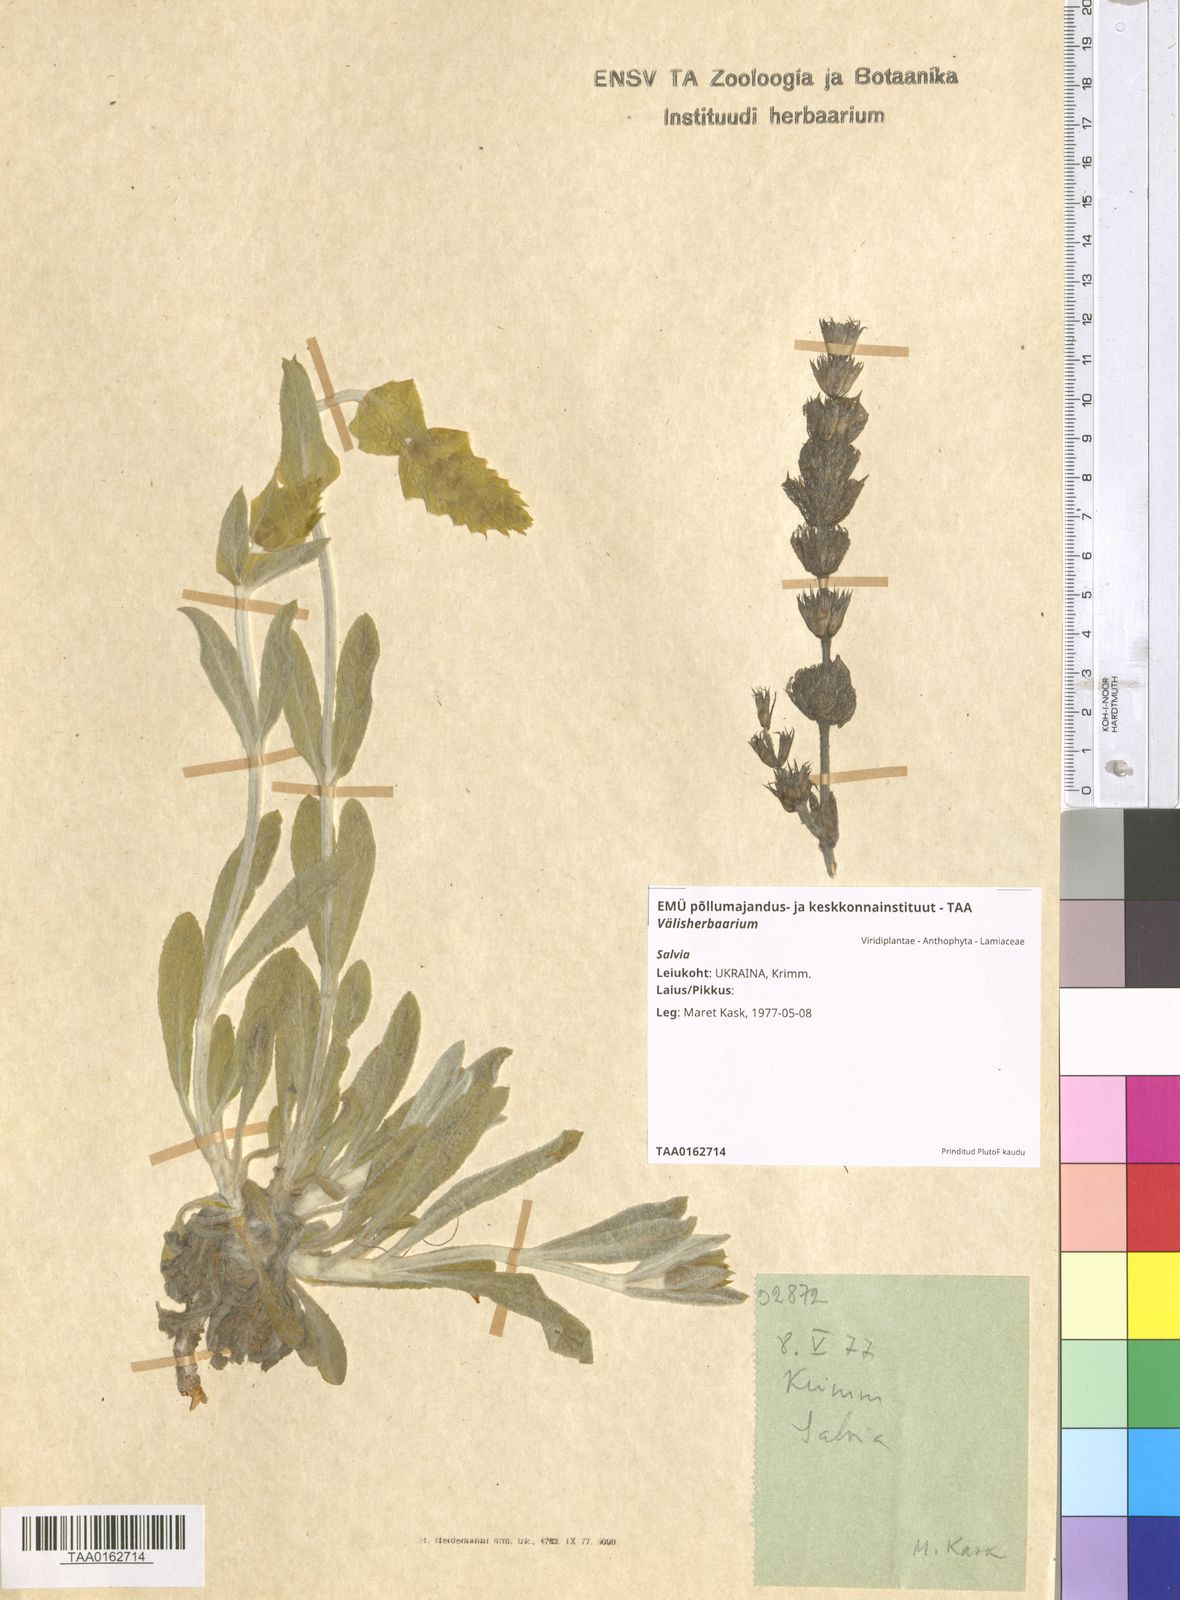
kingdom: Plantae
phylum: Tracheophyta
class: Magnoliopsida
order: Lamiales
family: Lamiaceae
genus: Salvia
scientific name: Salvia
